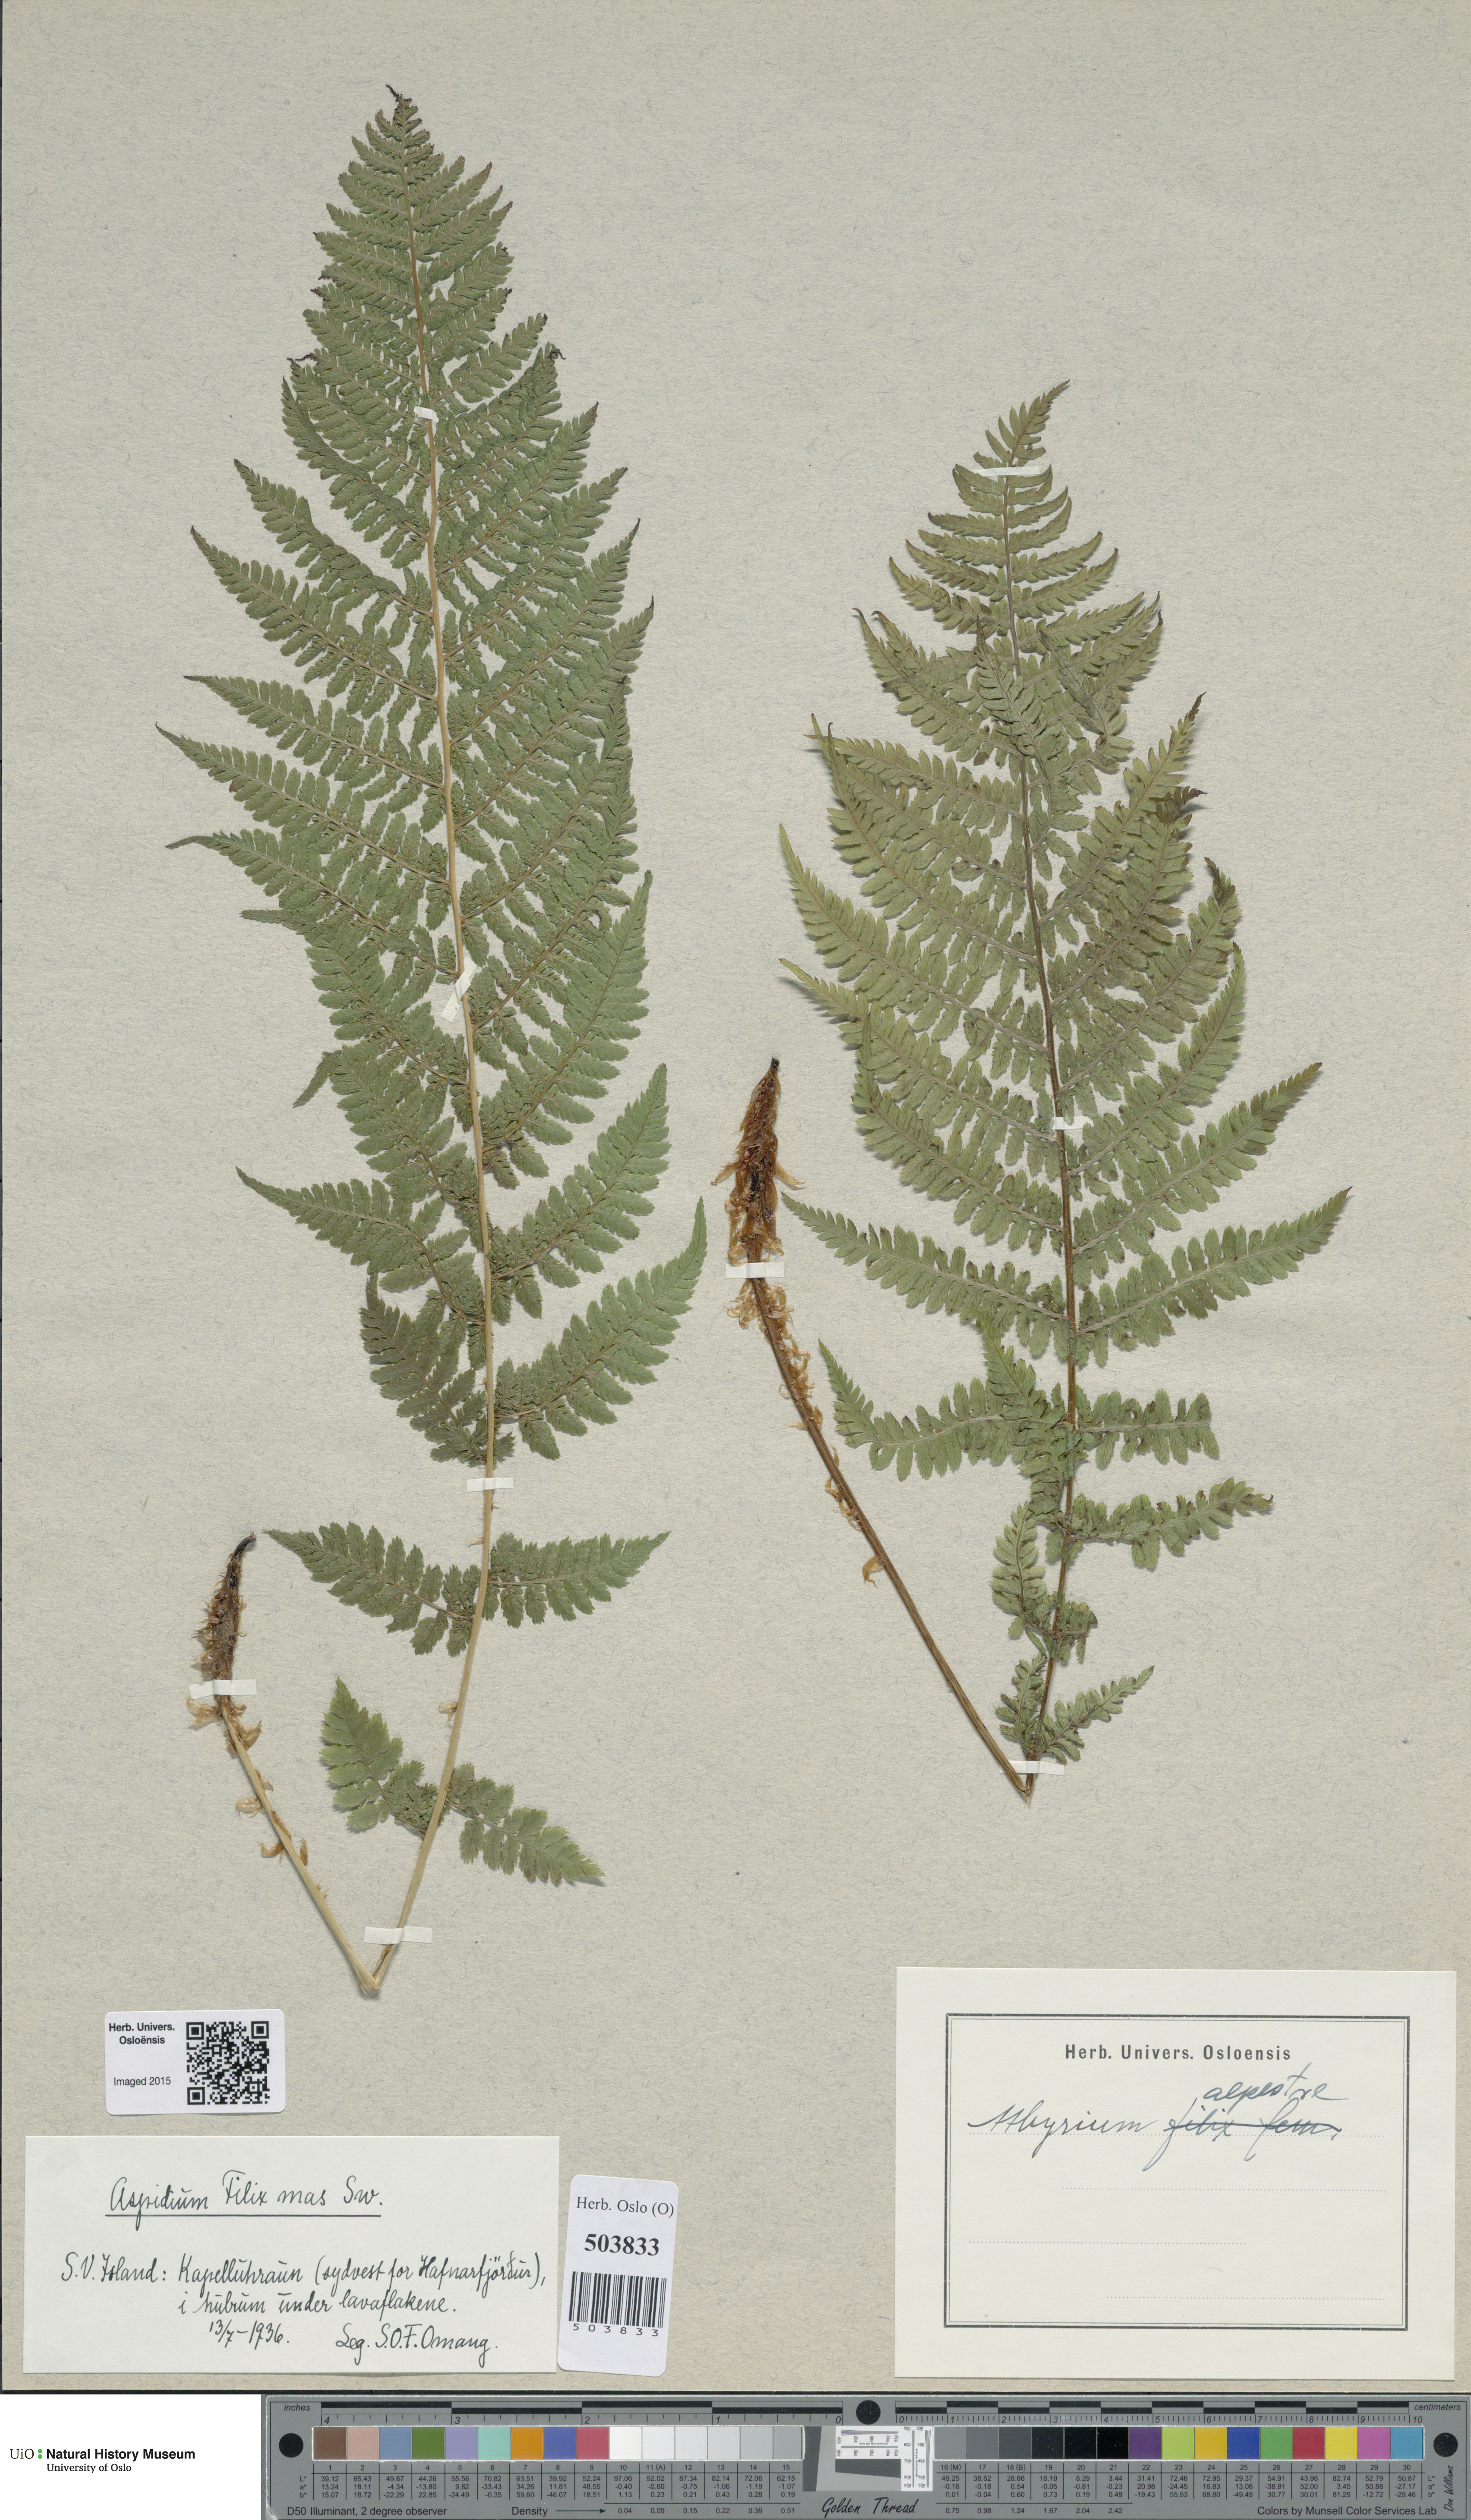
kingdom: Plantae
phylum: Tracheophyta
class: Polypodiopsida
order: Polypodiales
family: Athyriaceae
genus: Athyrium
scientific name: Athyrium filix-femina
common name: Lady fern
